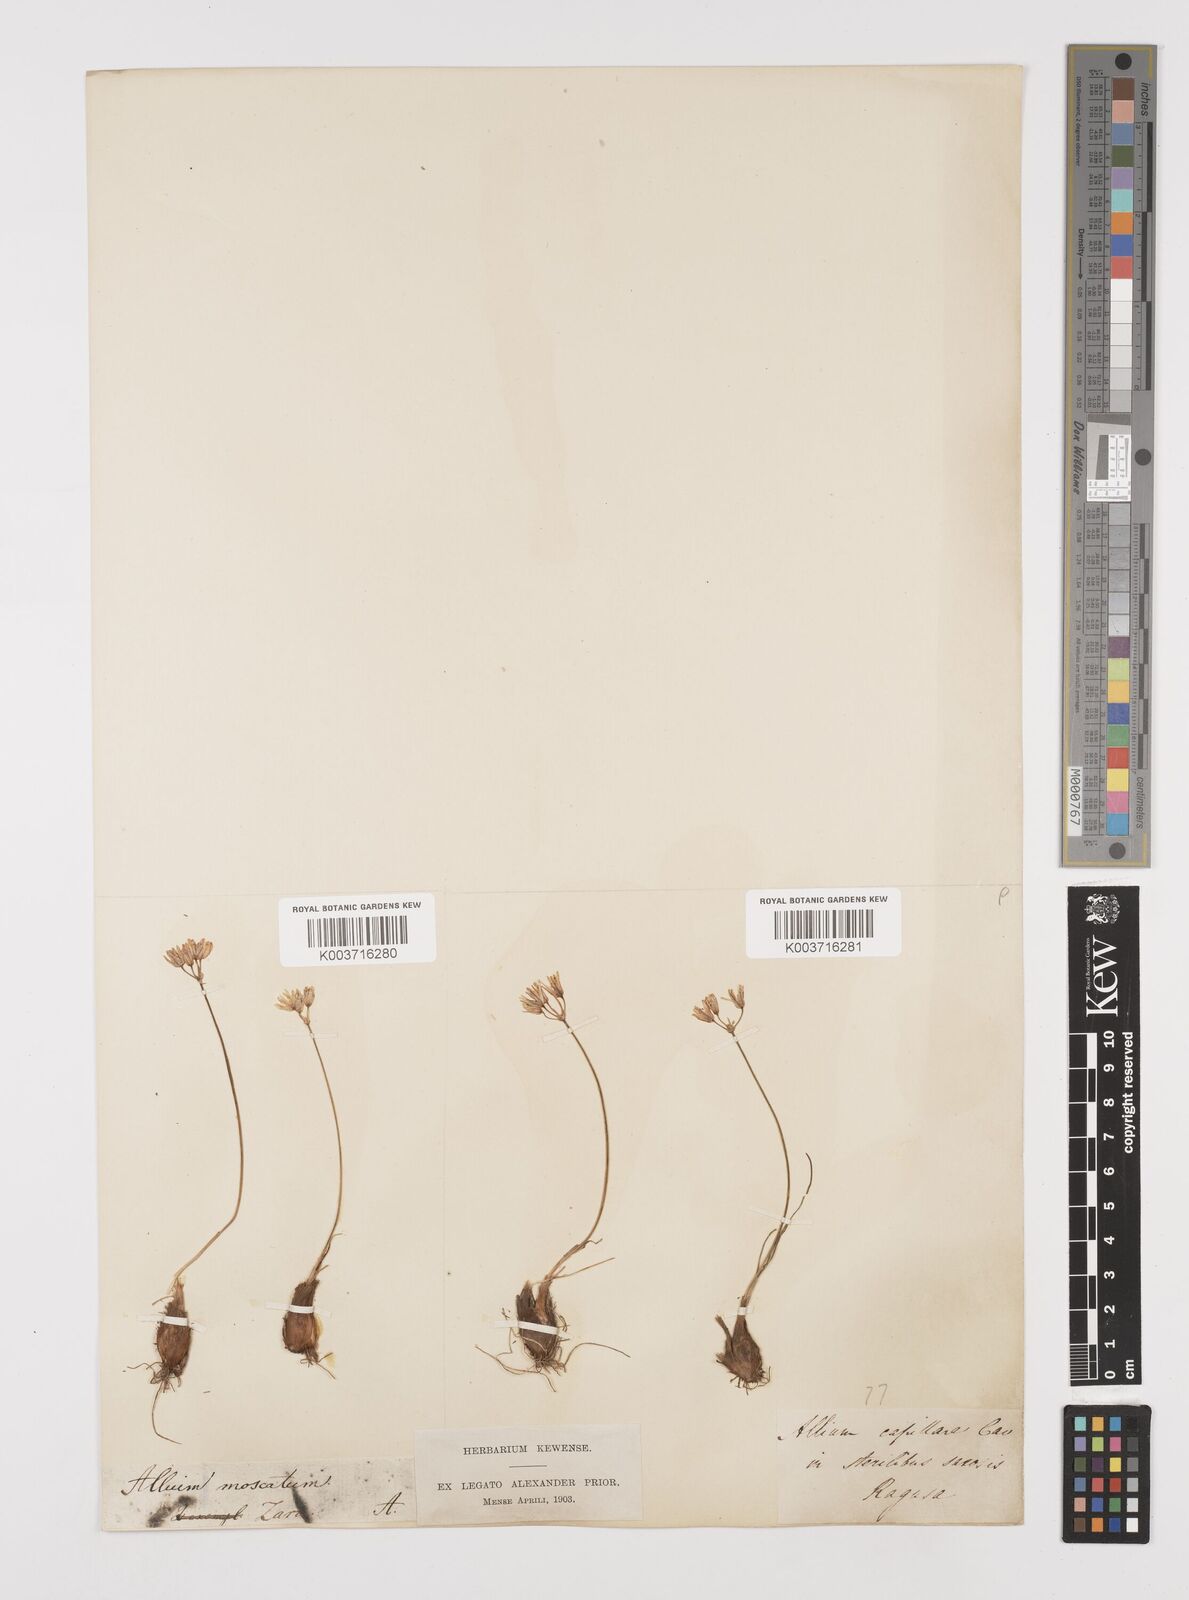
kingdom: Plantae
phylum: Tracheophyta
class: Liliopsida
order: Asparagales
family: Amaryllidaceae
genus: Allium
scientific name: Allium moschatum
